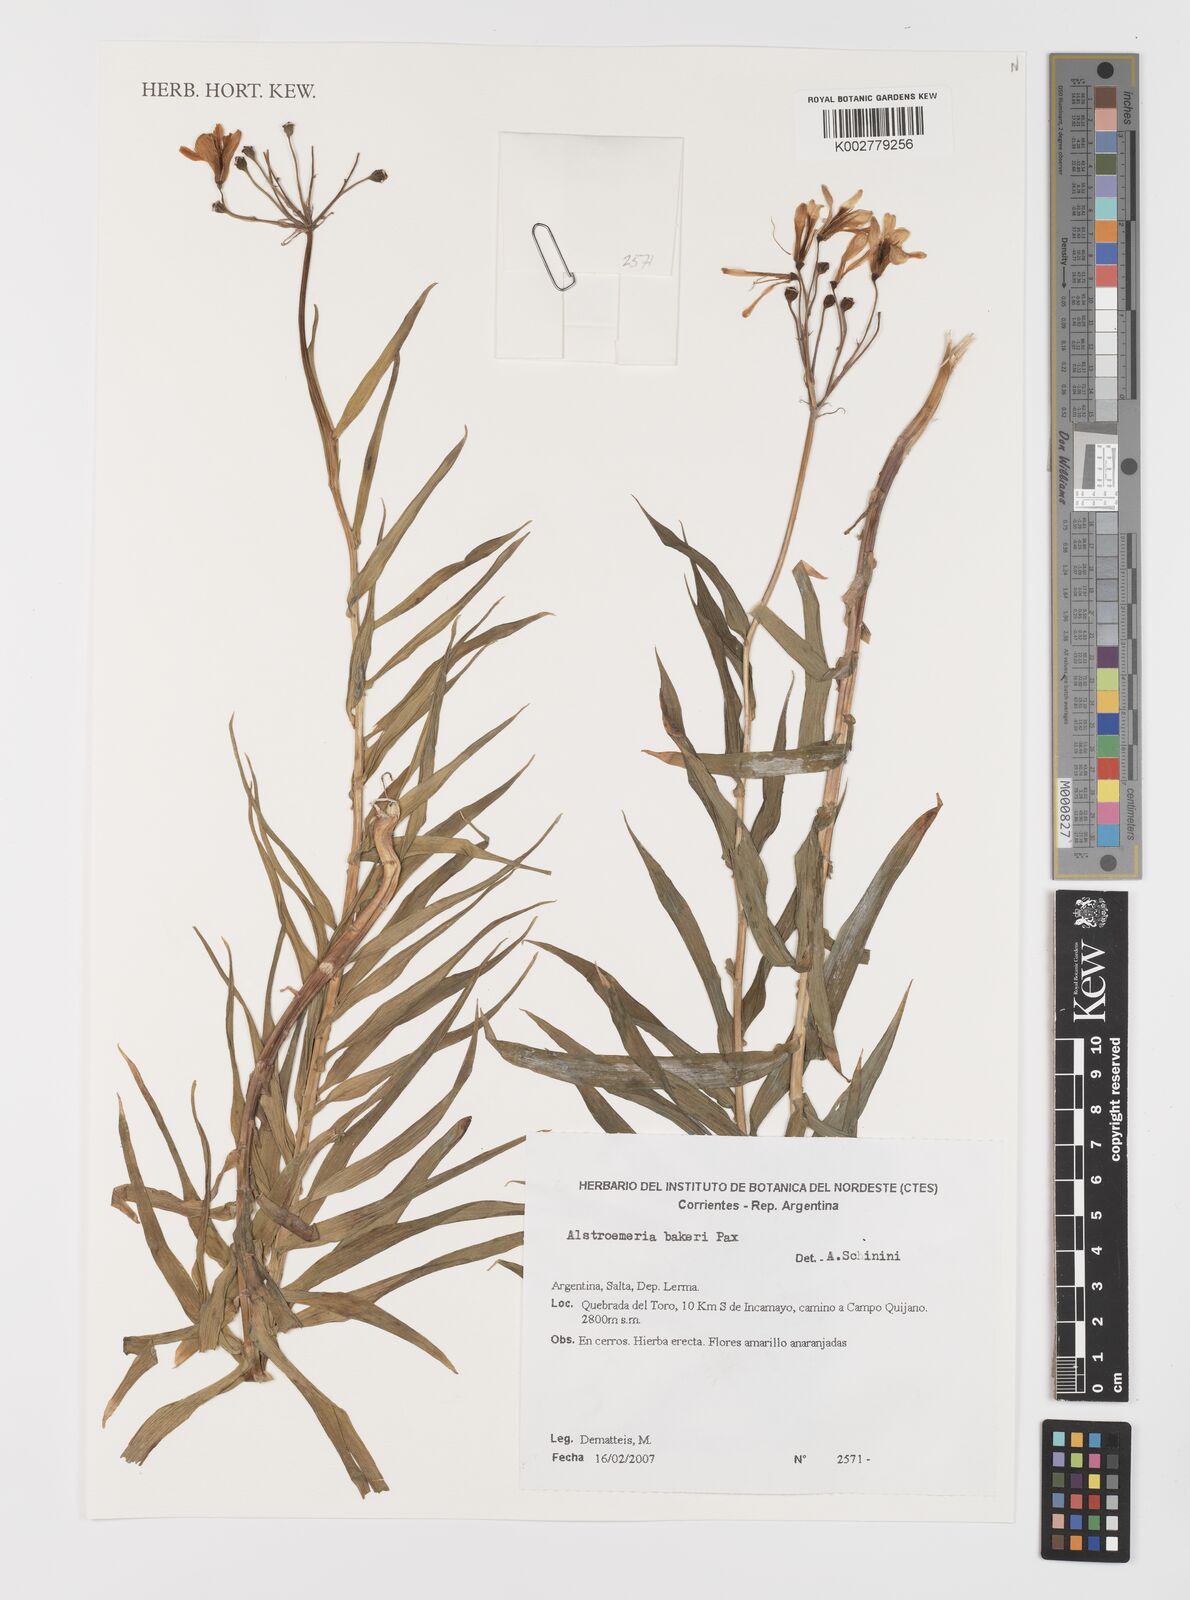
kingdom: Plantae
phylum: Tracheophyta
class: Liliopsida
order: Liliales
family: Alstroemeriaceae
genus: Alstroemeria
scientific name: Alstroemeria bakeri
